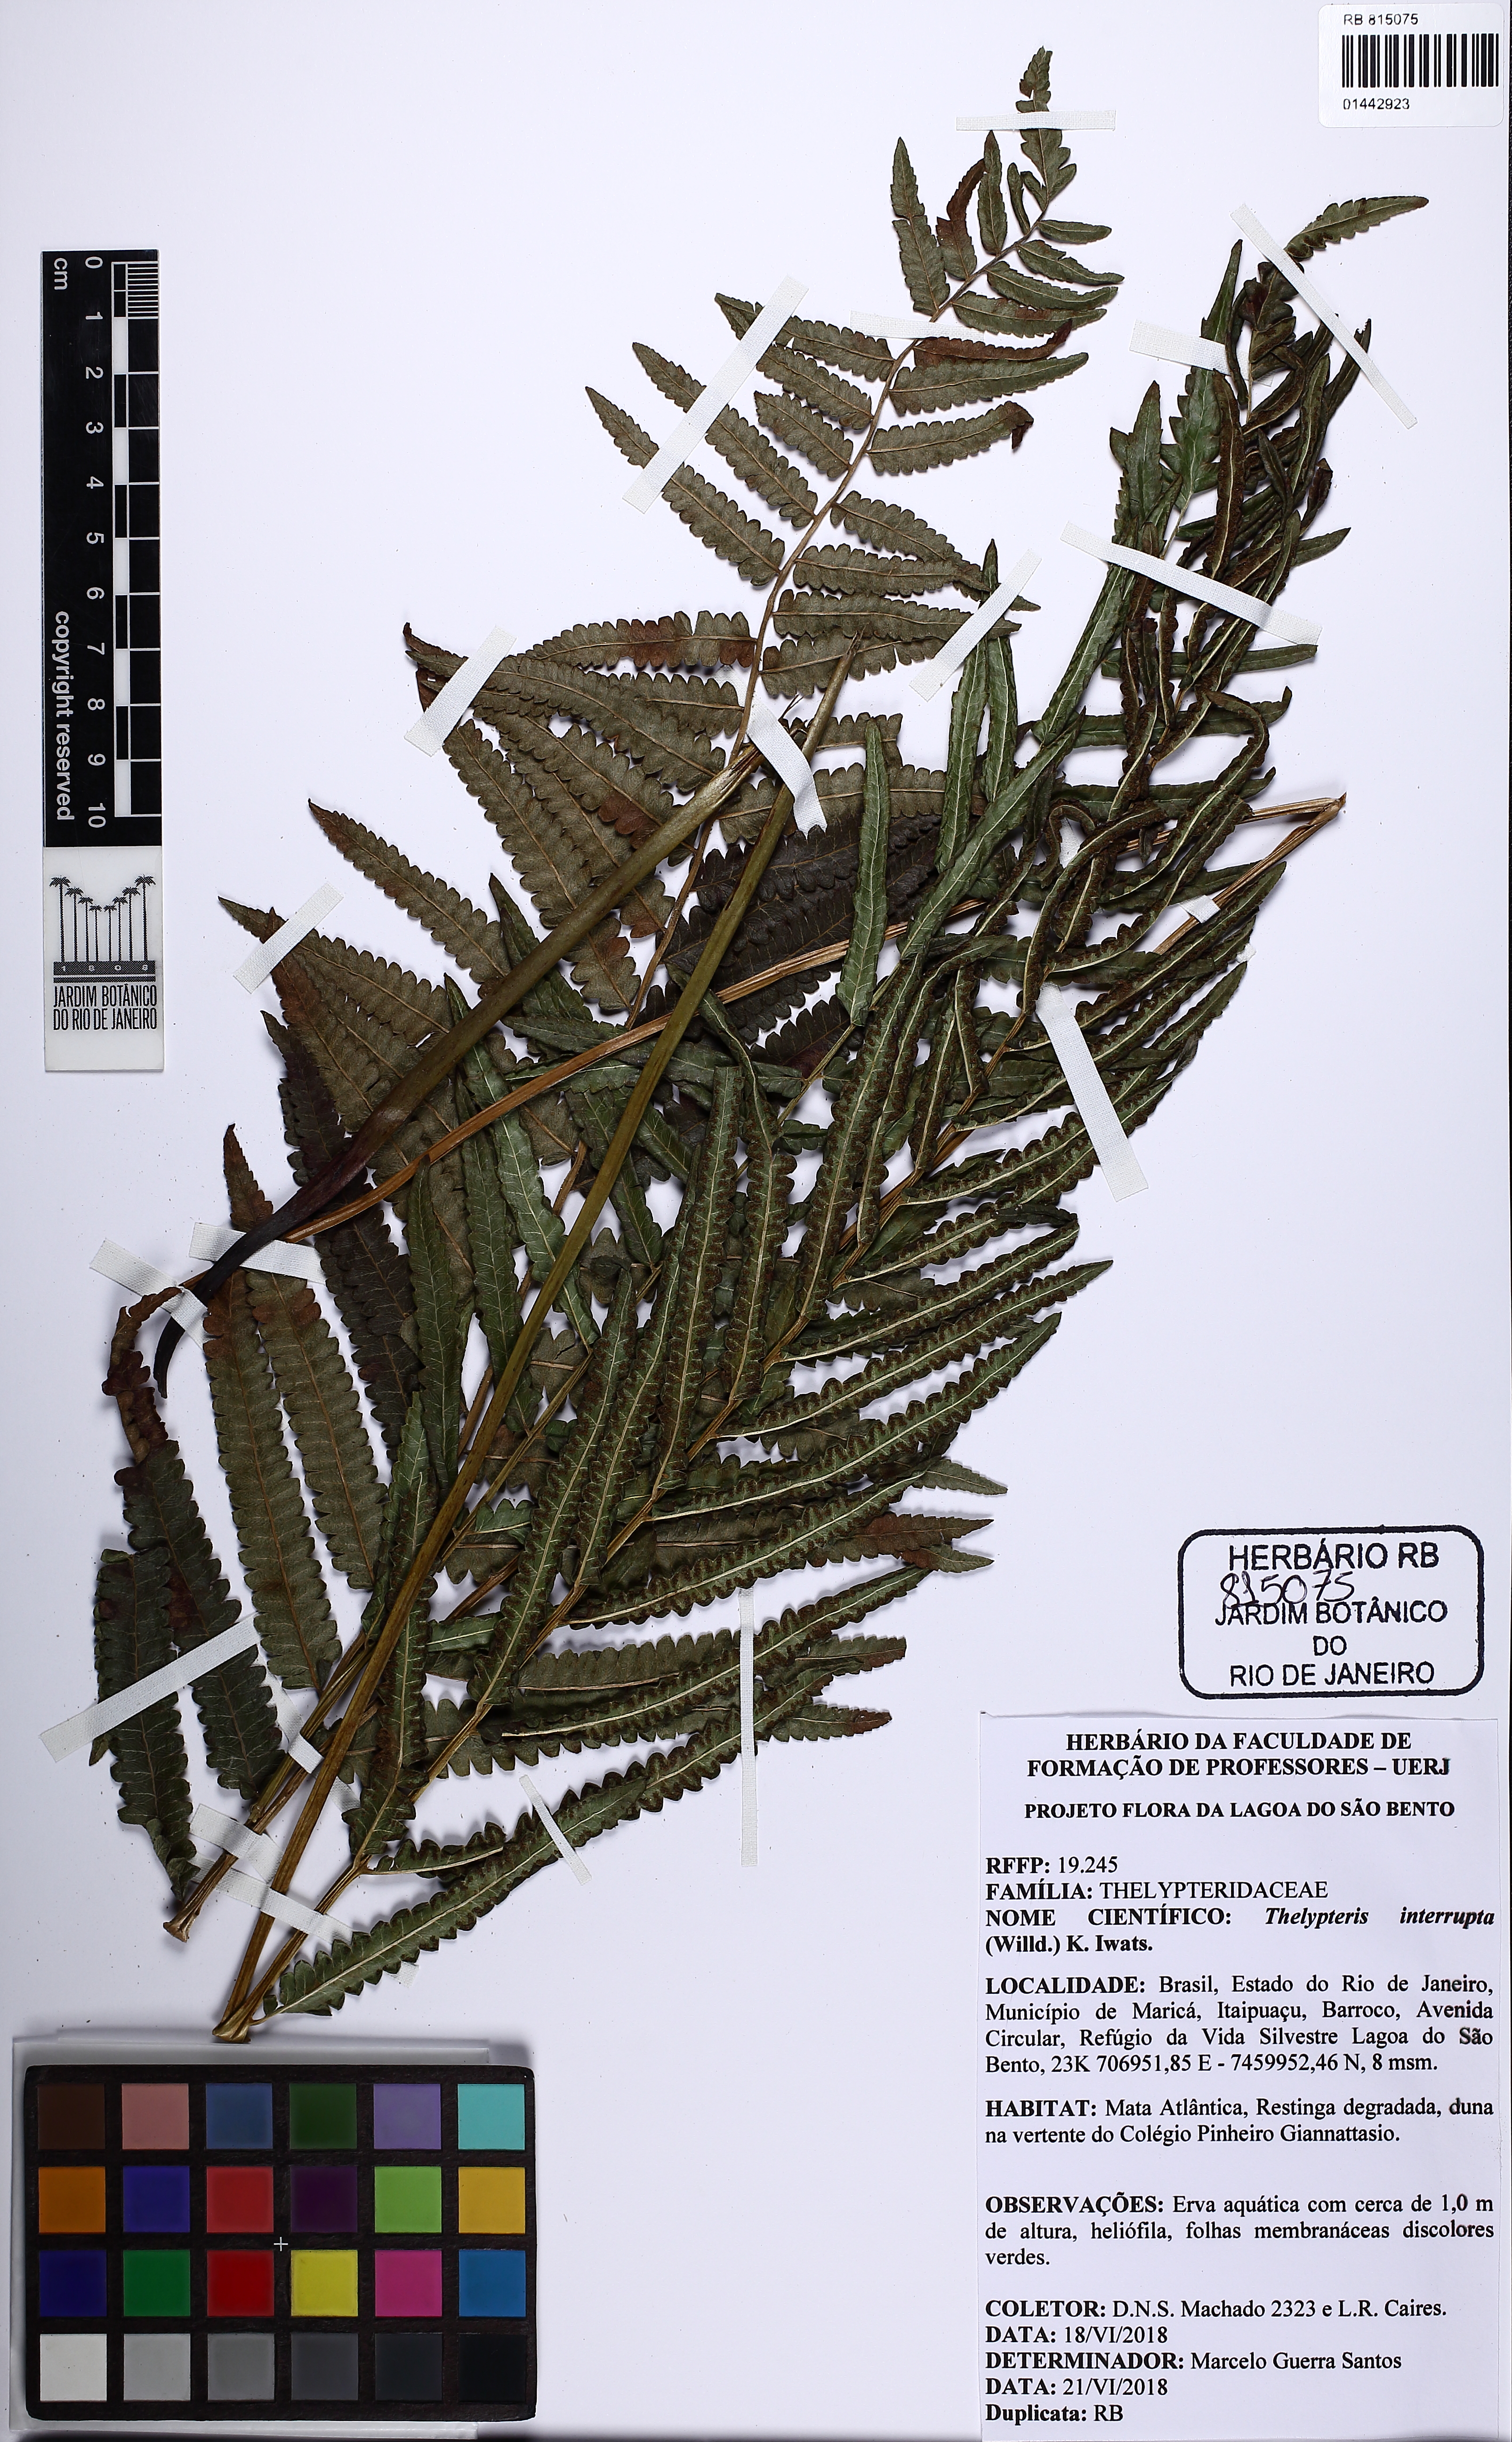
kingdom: Plantae
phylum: Tracheophyta
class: Polypodiopsida
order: Polypodiales
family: Thelypteridaceae
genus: Cyclosorus
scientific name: Cyclosorus interruptus
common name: Neke fern
